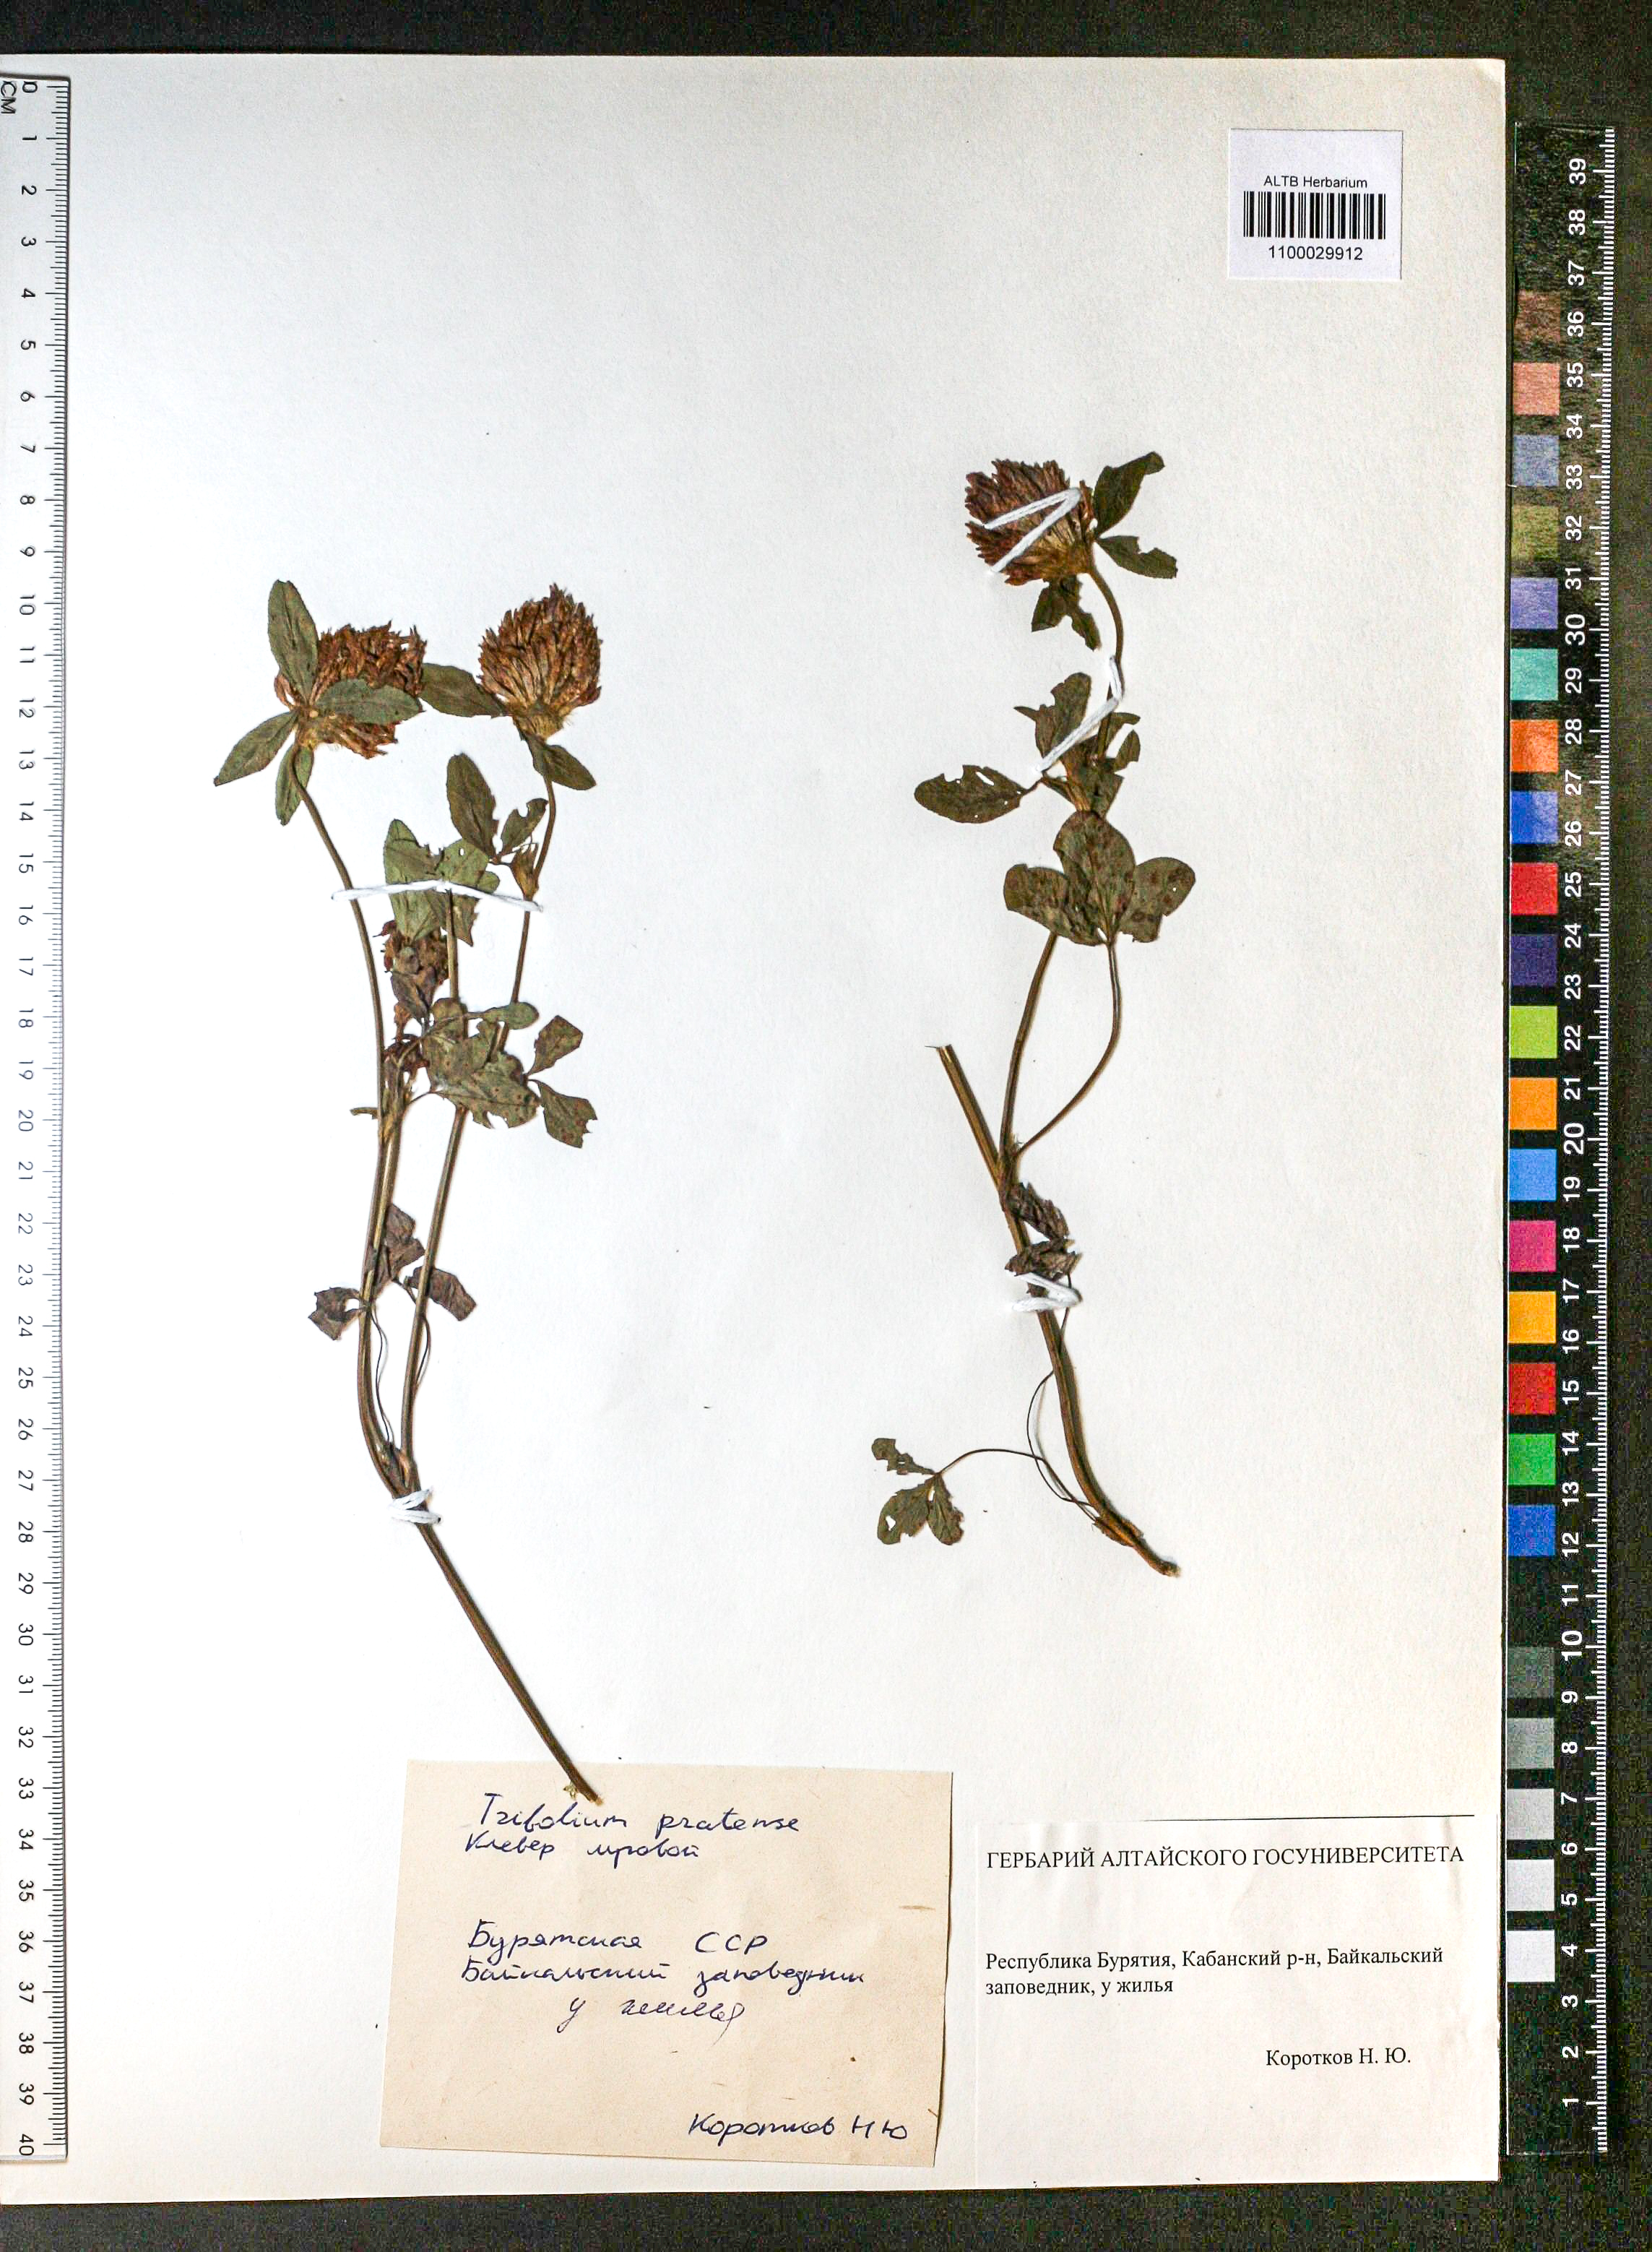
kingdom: Plantae
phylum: Tracheophyta
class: Magnoliopsida
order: Fabales
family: Fabaceae
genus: Trifolium
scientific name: Trifolium pratense
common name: Red clover
